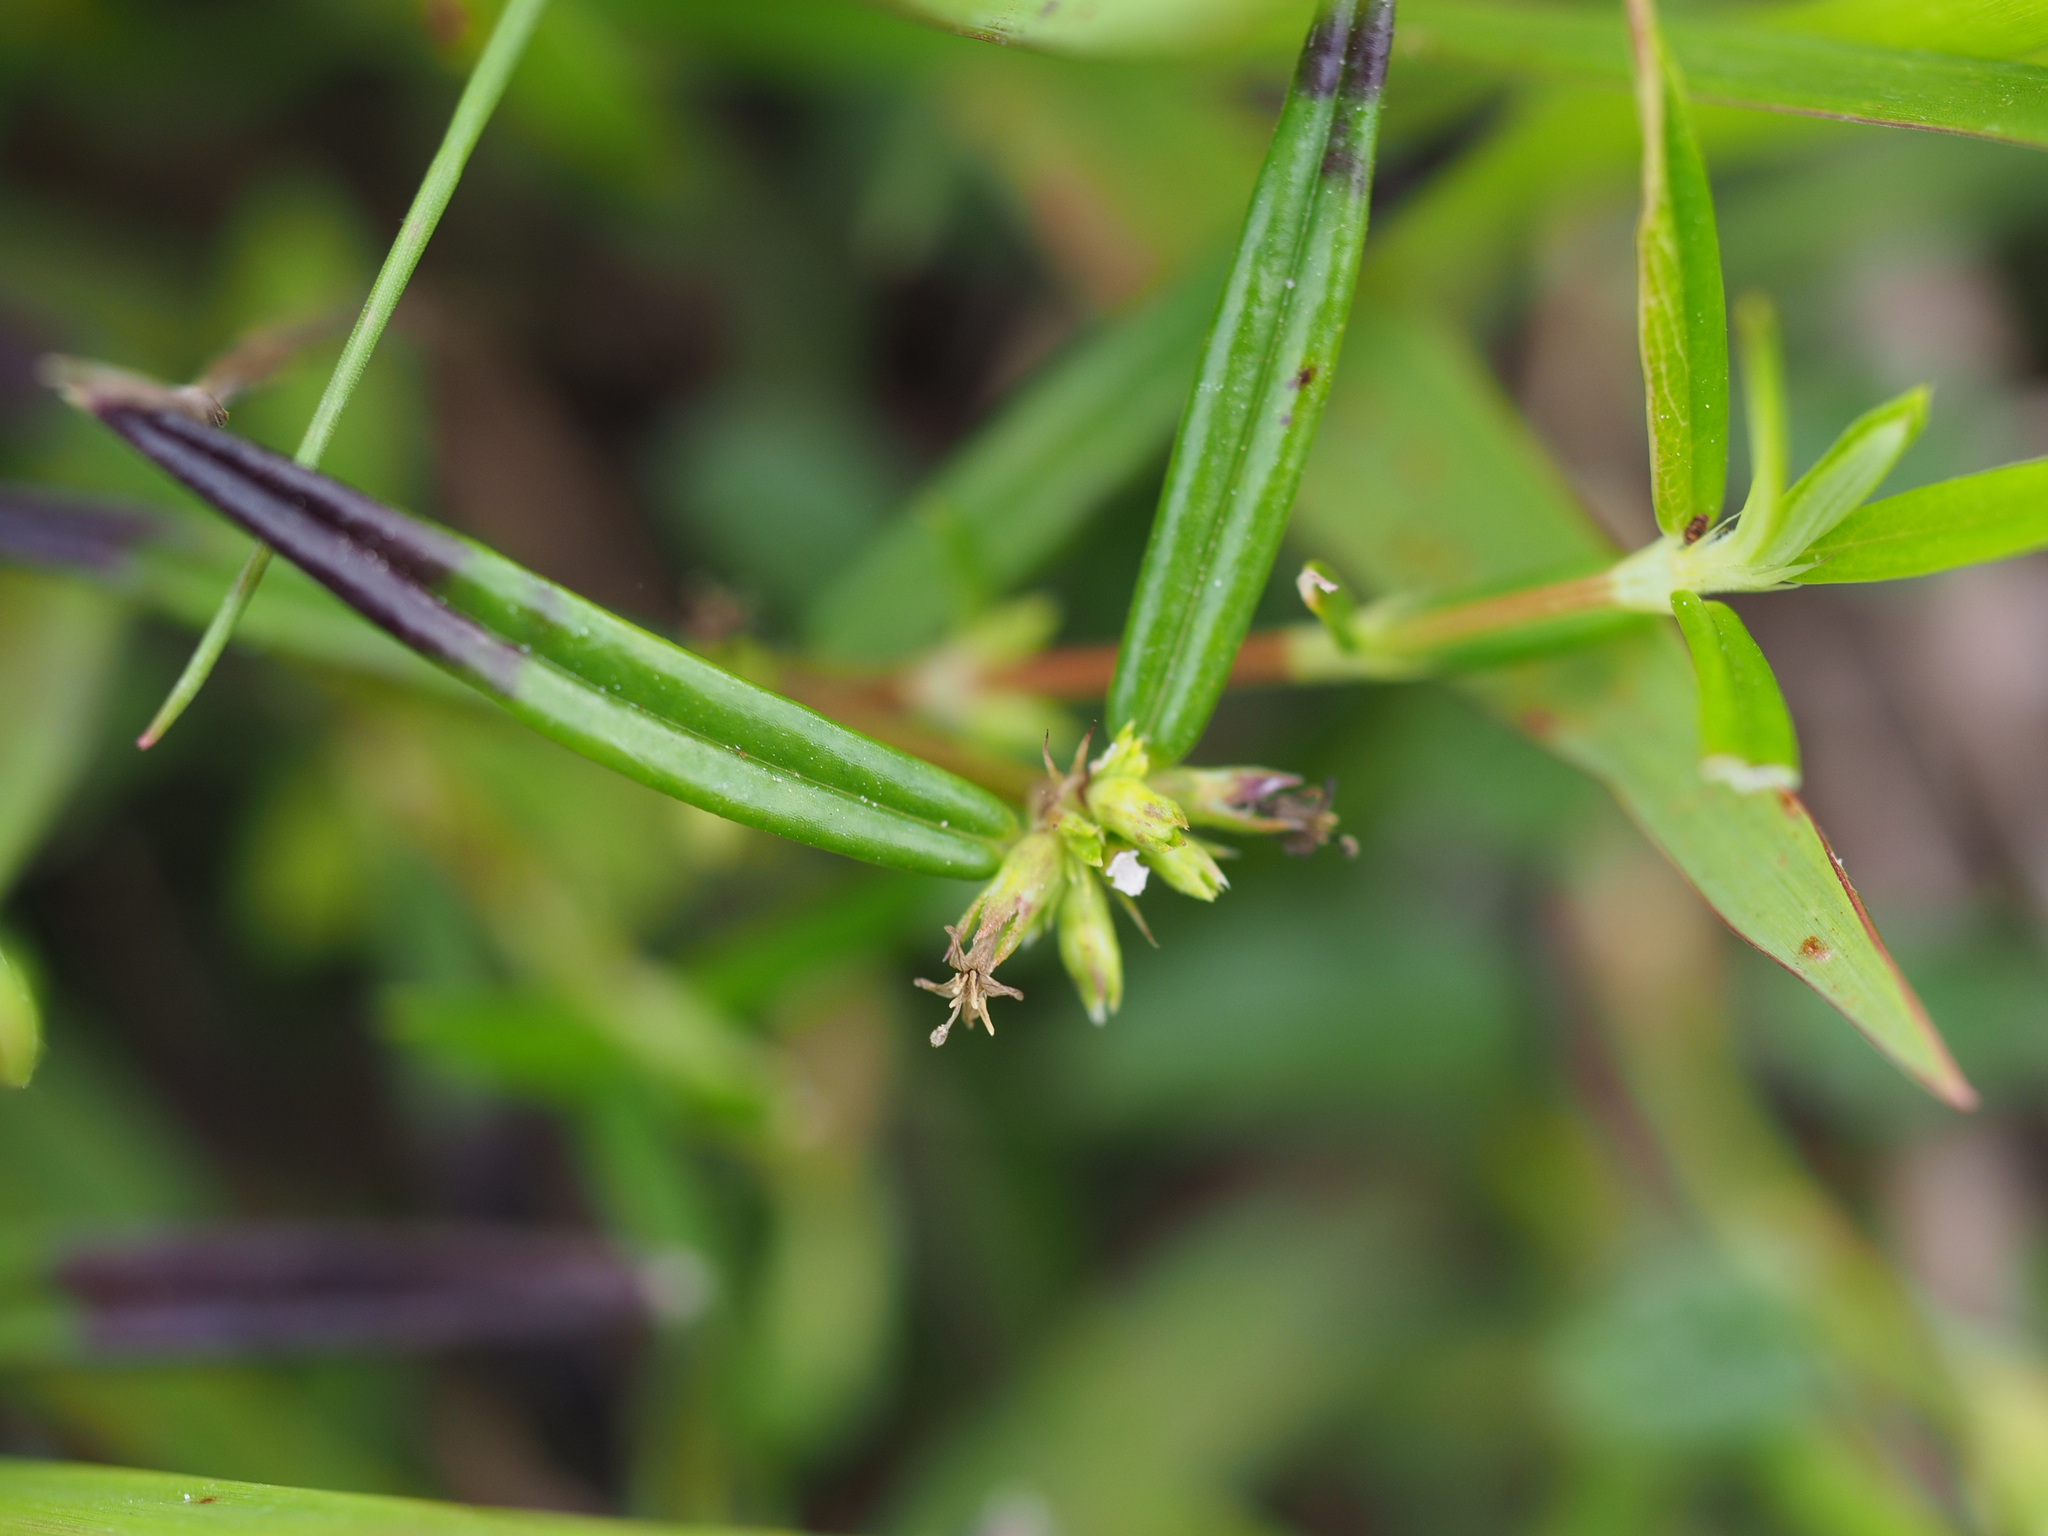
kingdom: Plantae
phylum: Tracheophyta
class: Magnoliopsida
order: Gentianales
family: Rubiaceae
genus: Scleromitrion
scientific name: Scleromitrion tenelliflorum
